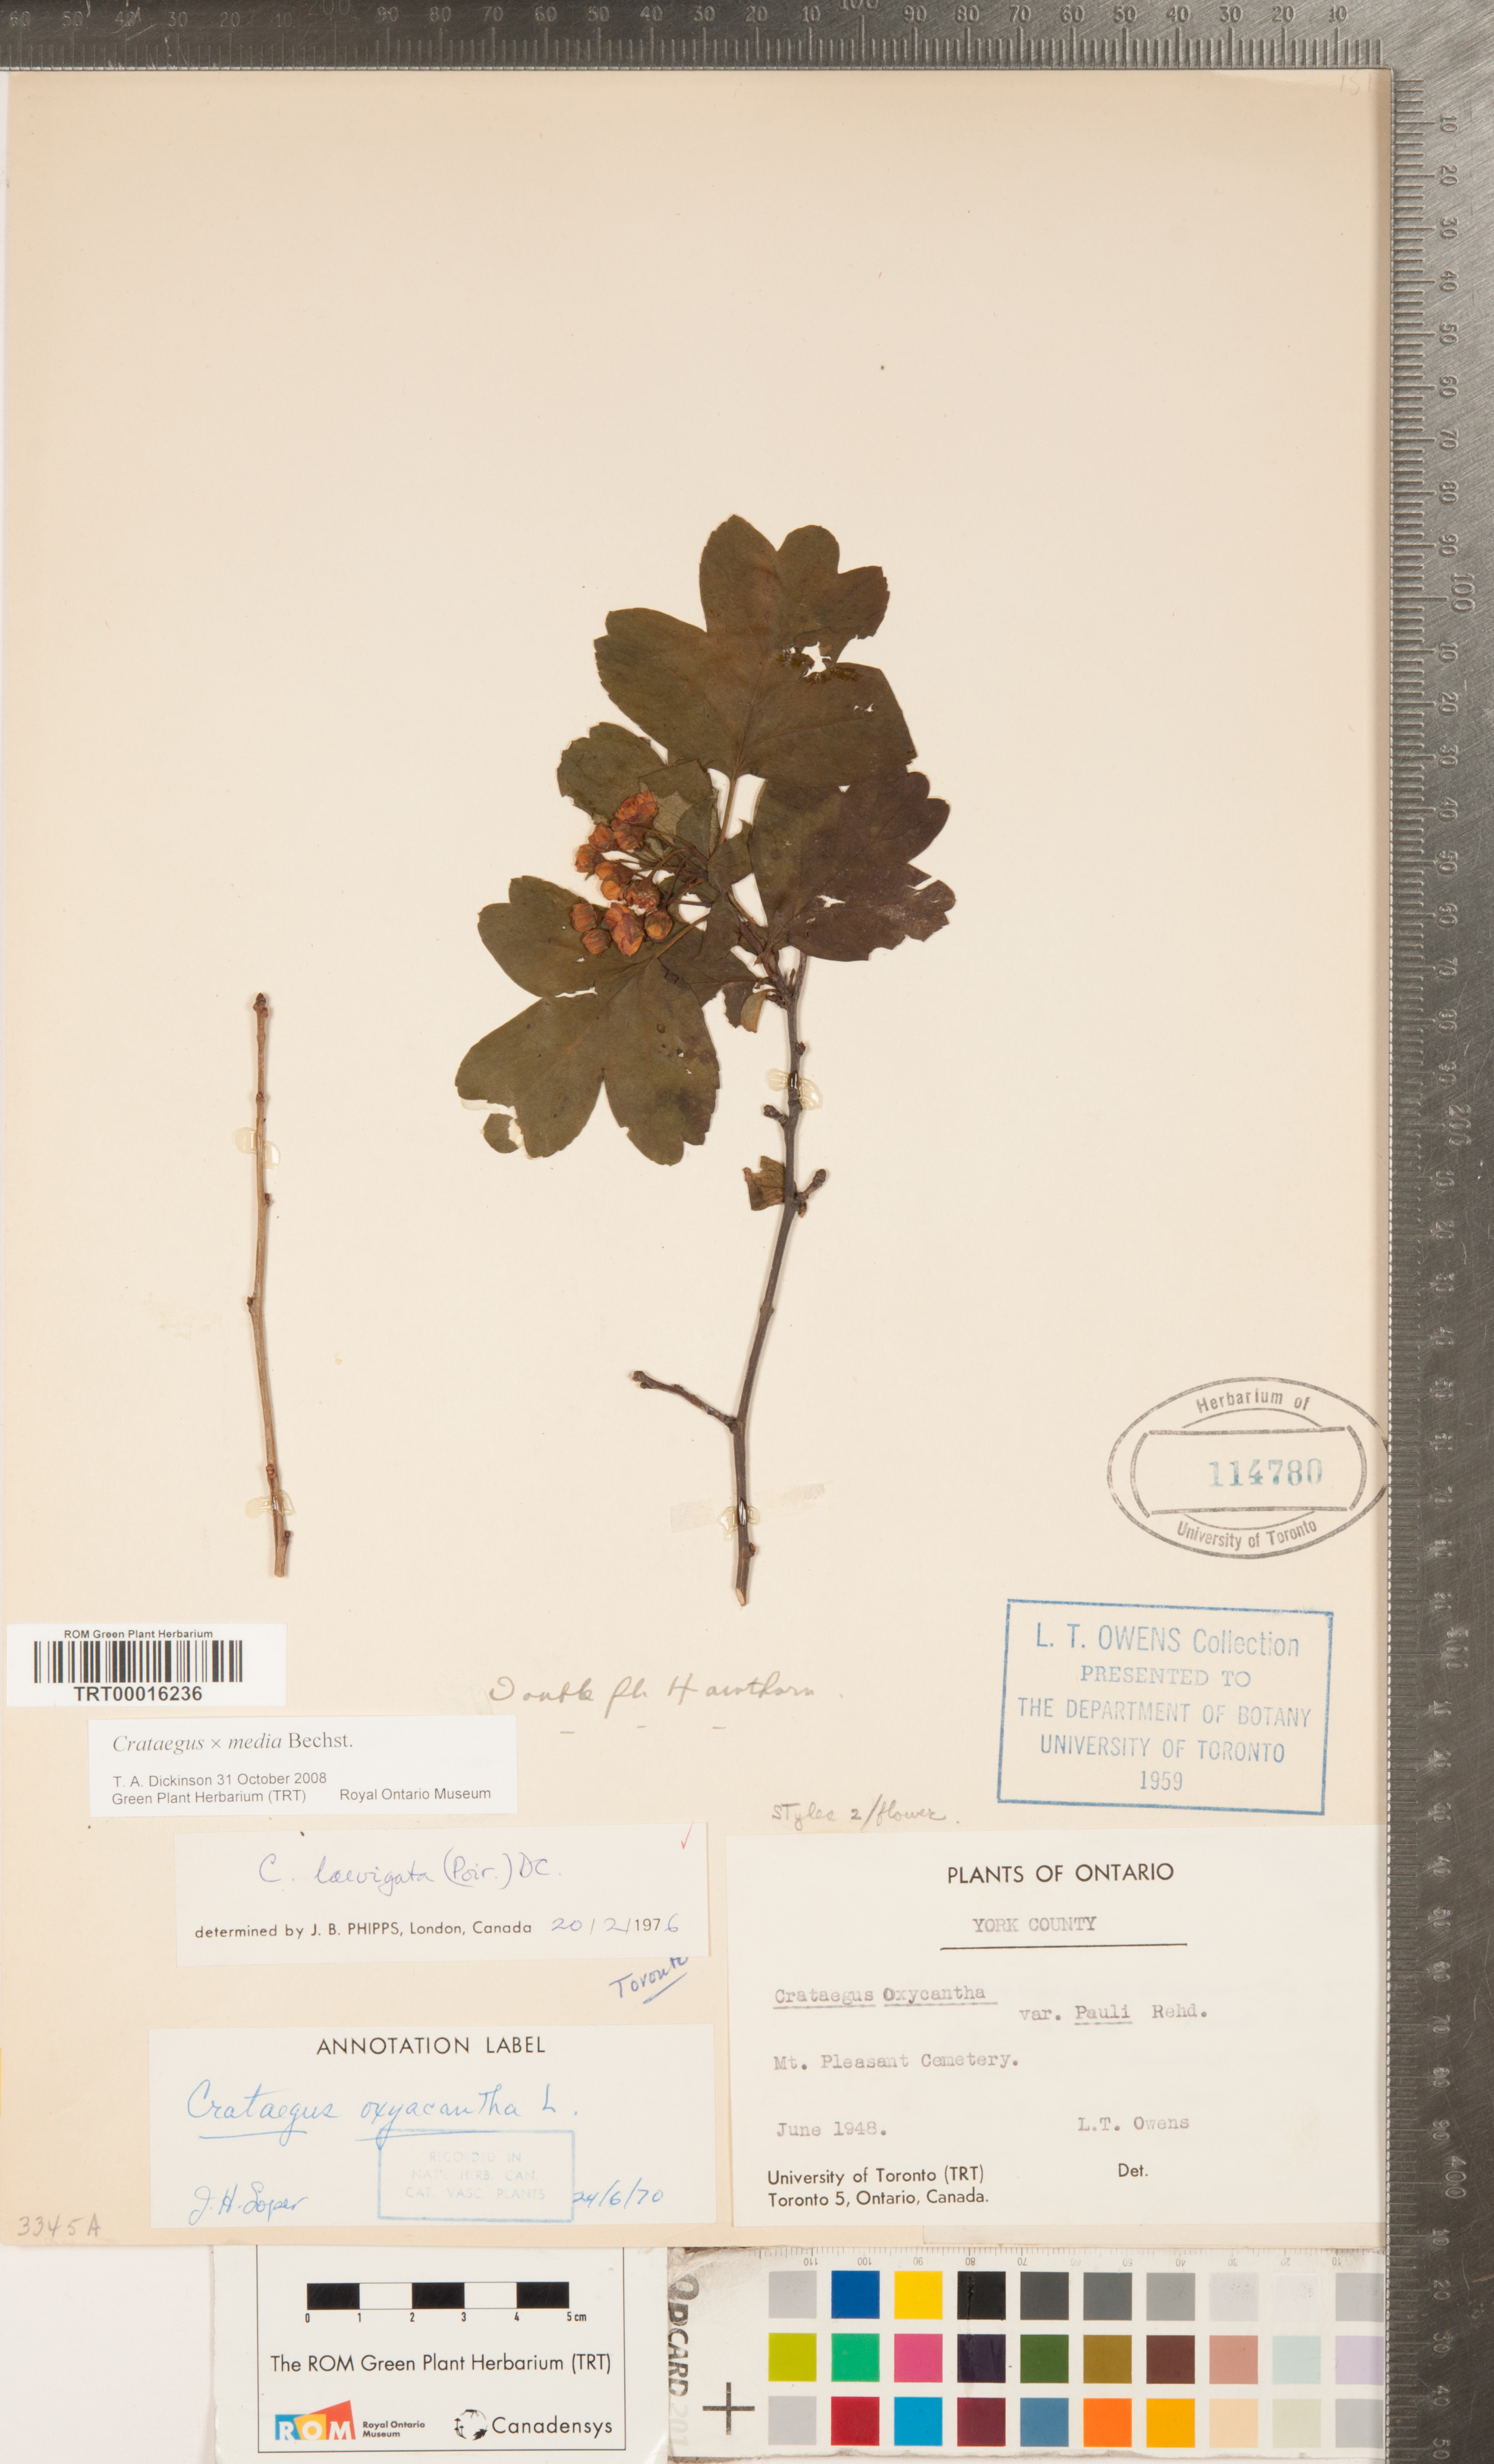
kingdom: Plantae
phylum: Tracheophyta
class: Magnoliopsida
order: Rosales
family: Rosaceae
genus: Crataegus
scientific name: Crataegus media
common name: Intermediate hawthorn
